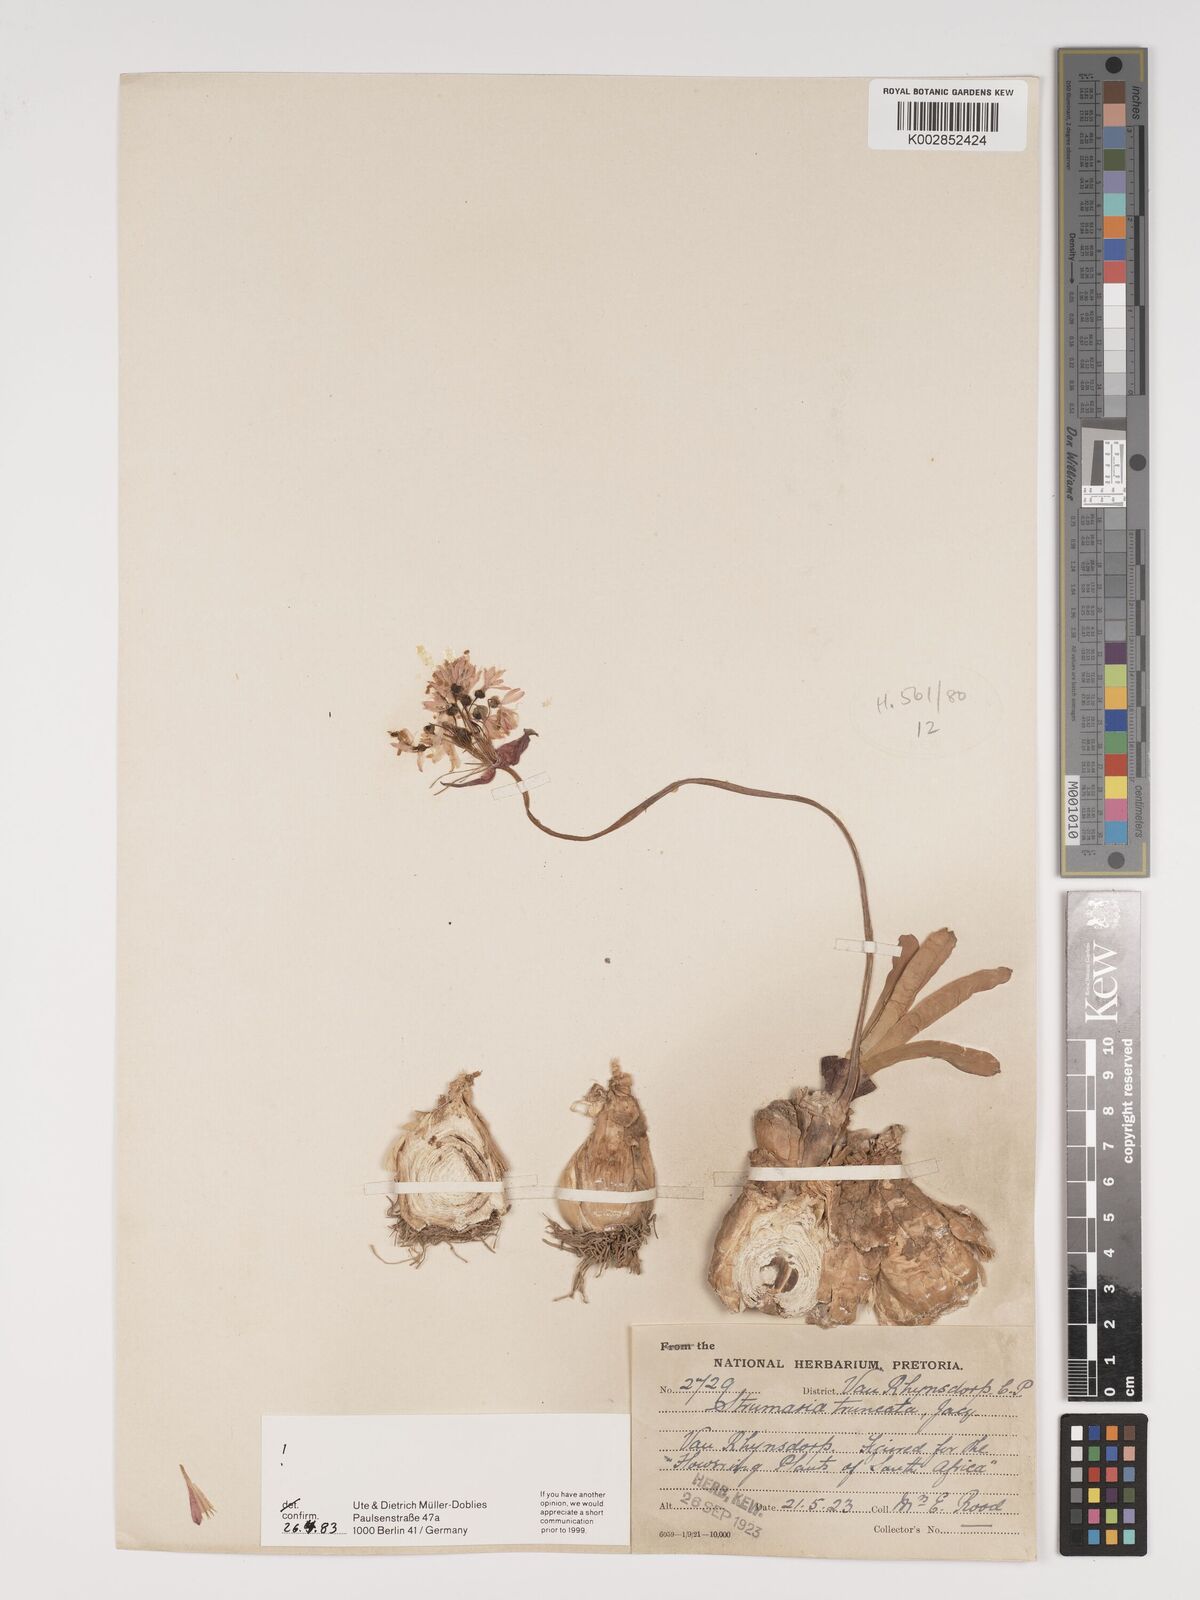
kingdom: Plantae
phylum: Tracheophyta
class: Liliopsida
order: Asparagales
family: Amaryllidaceae
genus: Strumaria
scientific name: Strumaria truncata
